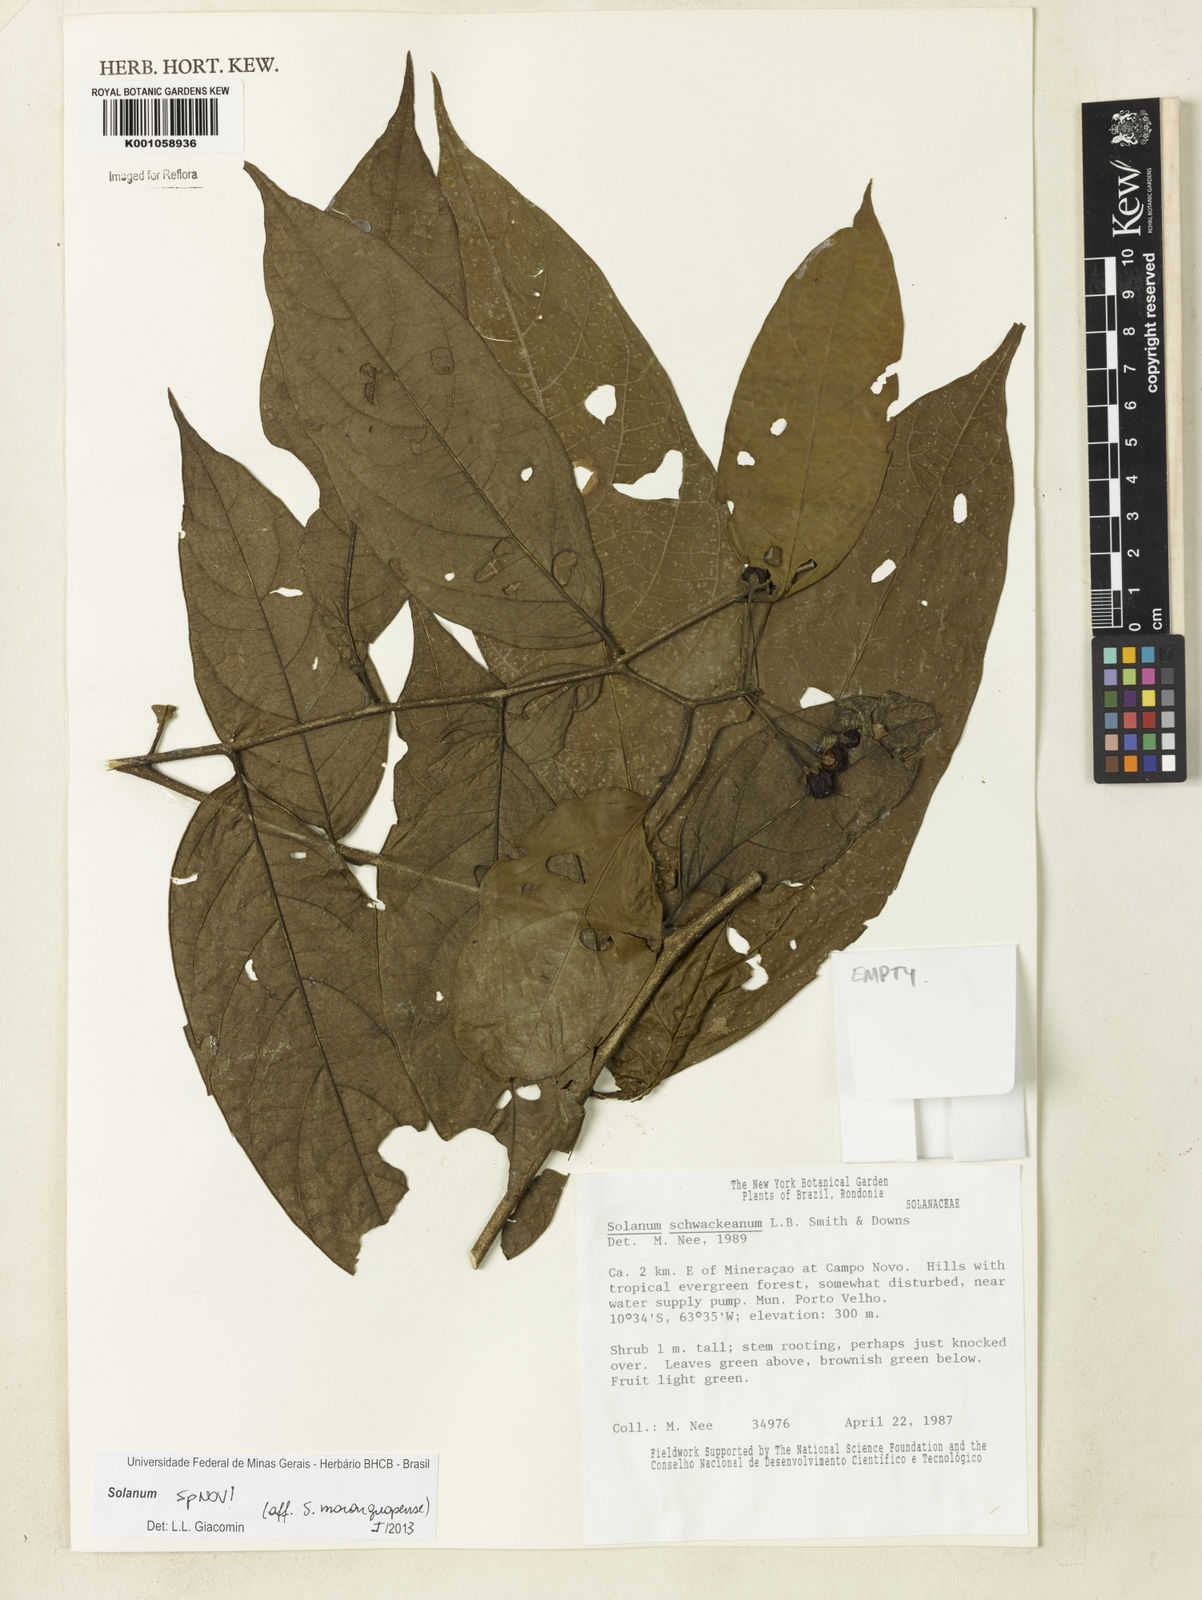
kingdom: Plantae
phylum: Tracheophyta
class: Magnoliopsida
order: Solanales
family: Solanaceae
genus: Solanum
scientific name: Solanum sellovianum
